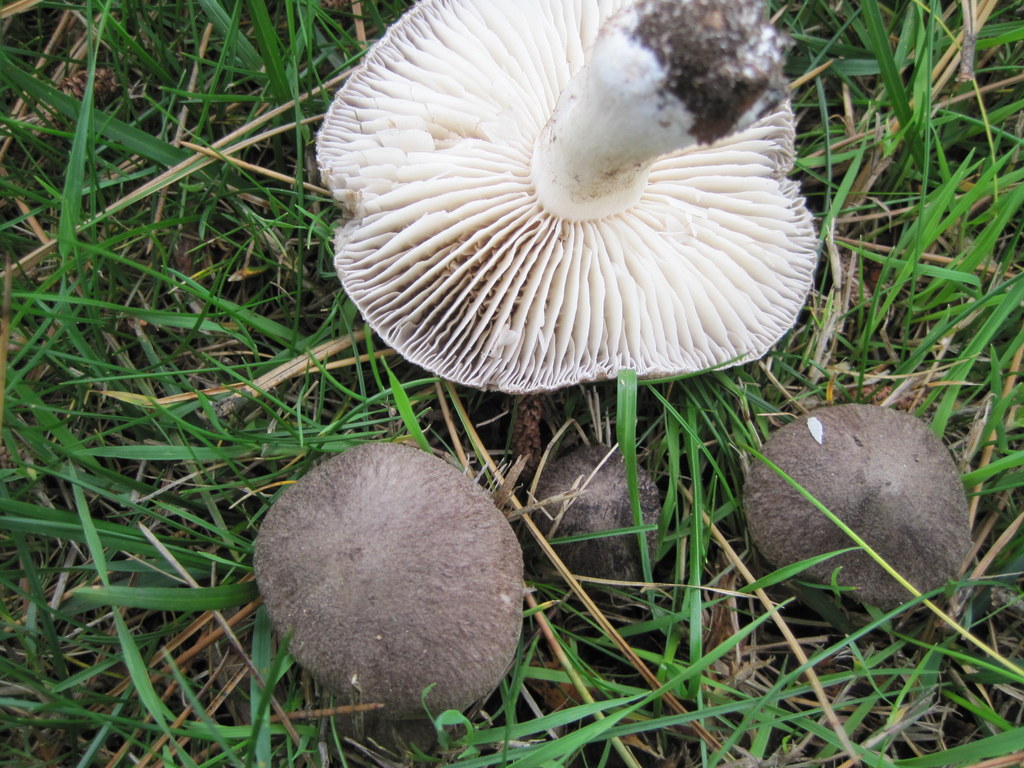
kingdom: Fungi
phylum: Basidiomycota
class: Agaricomycetes
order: Agaricales
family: Tricholomataceae
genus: Tricholoma
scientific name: Tricholoma terreum
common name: jordfarvet ridderhat
